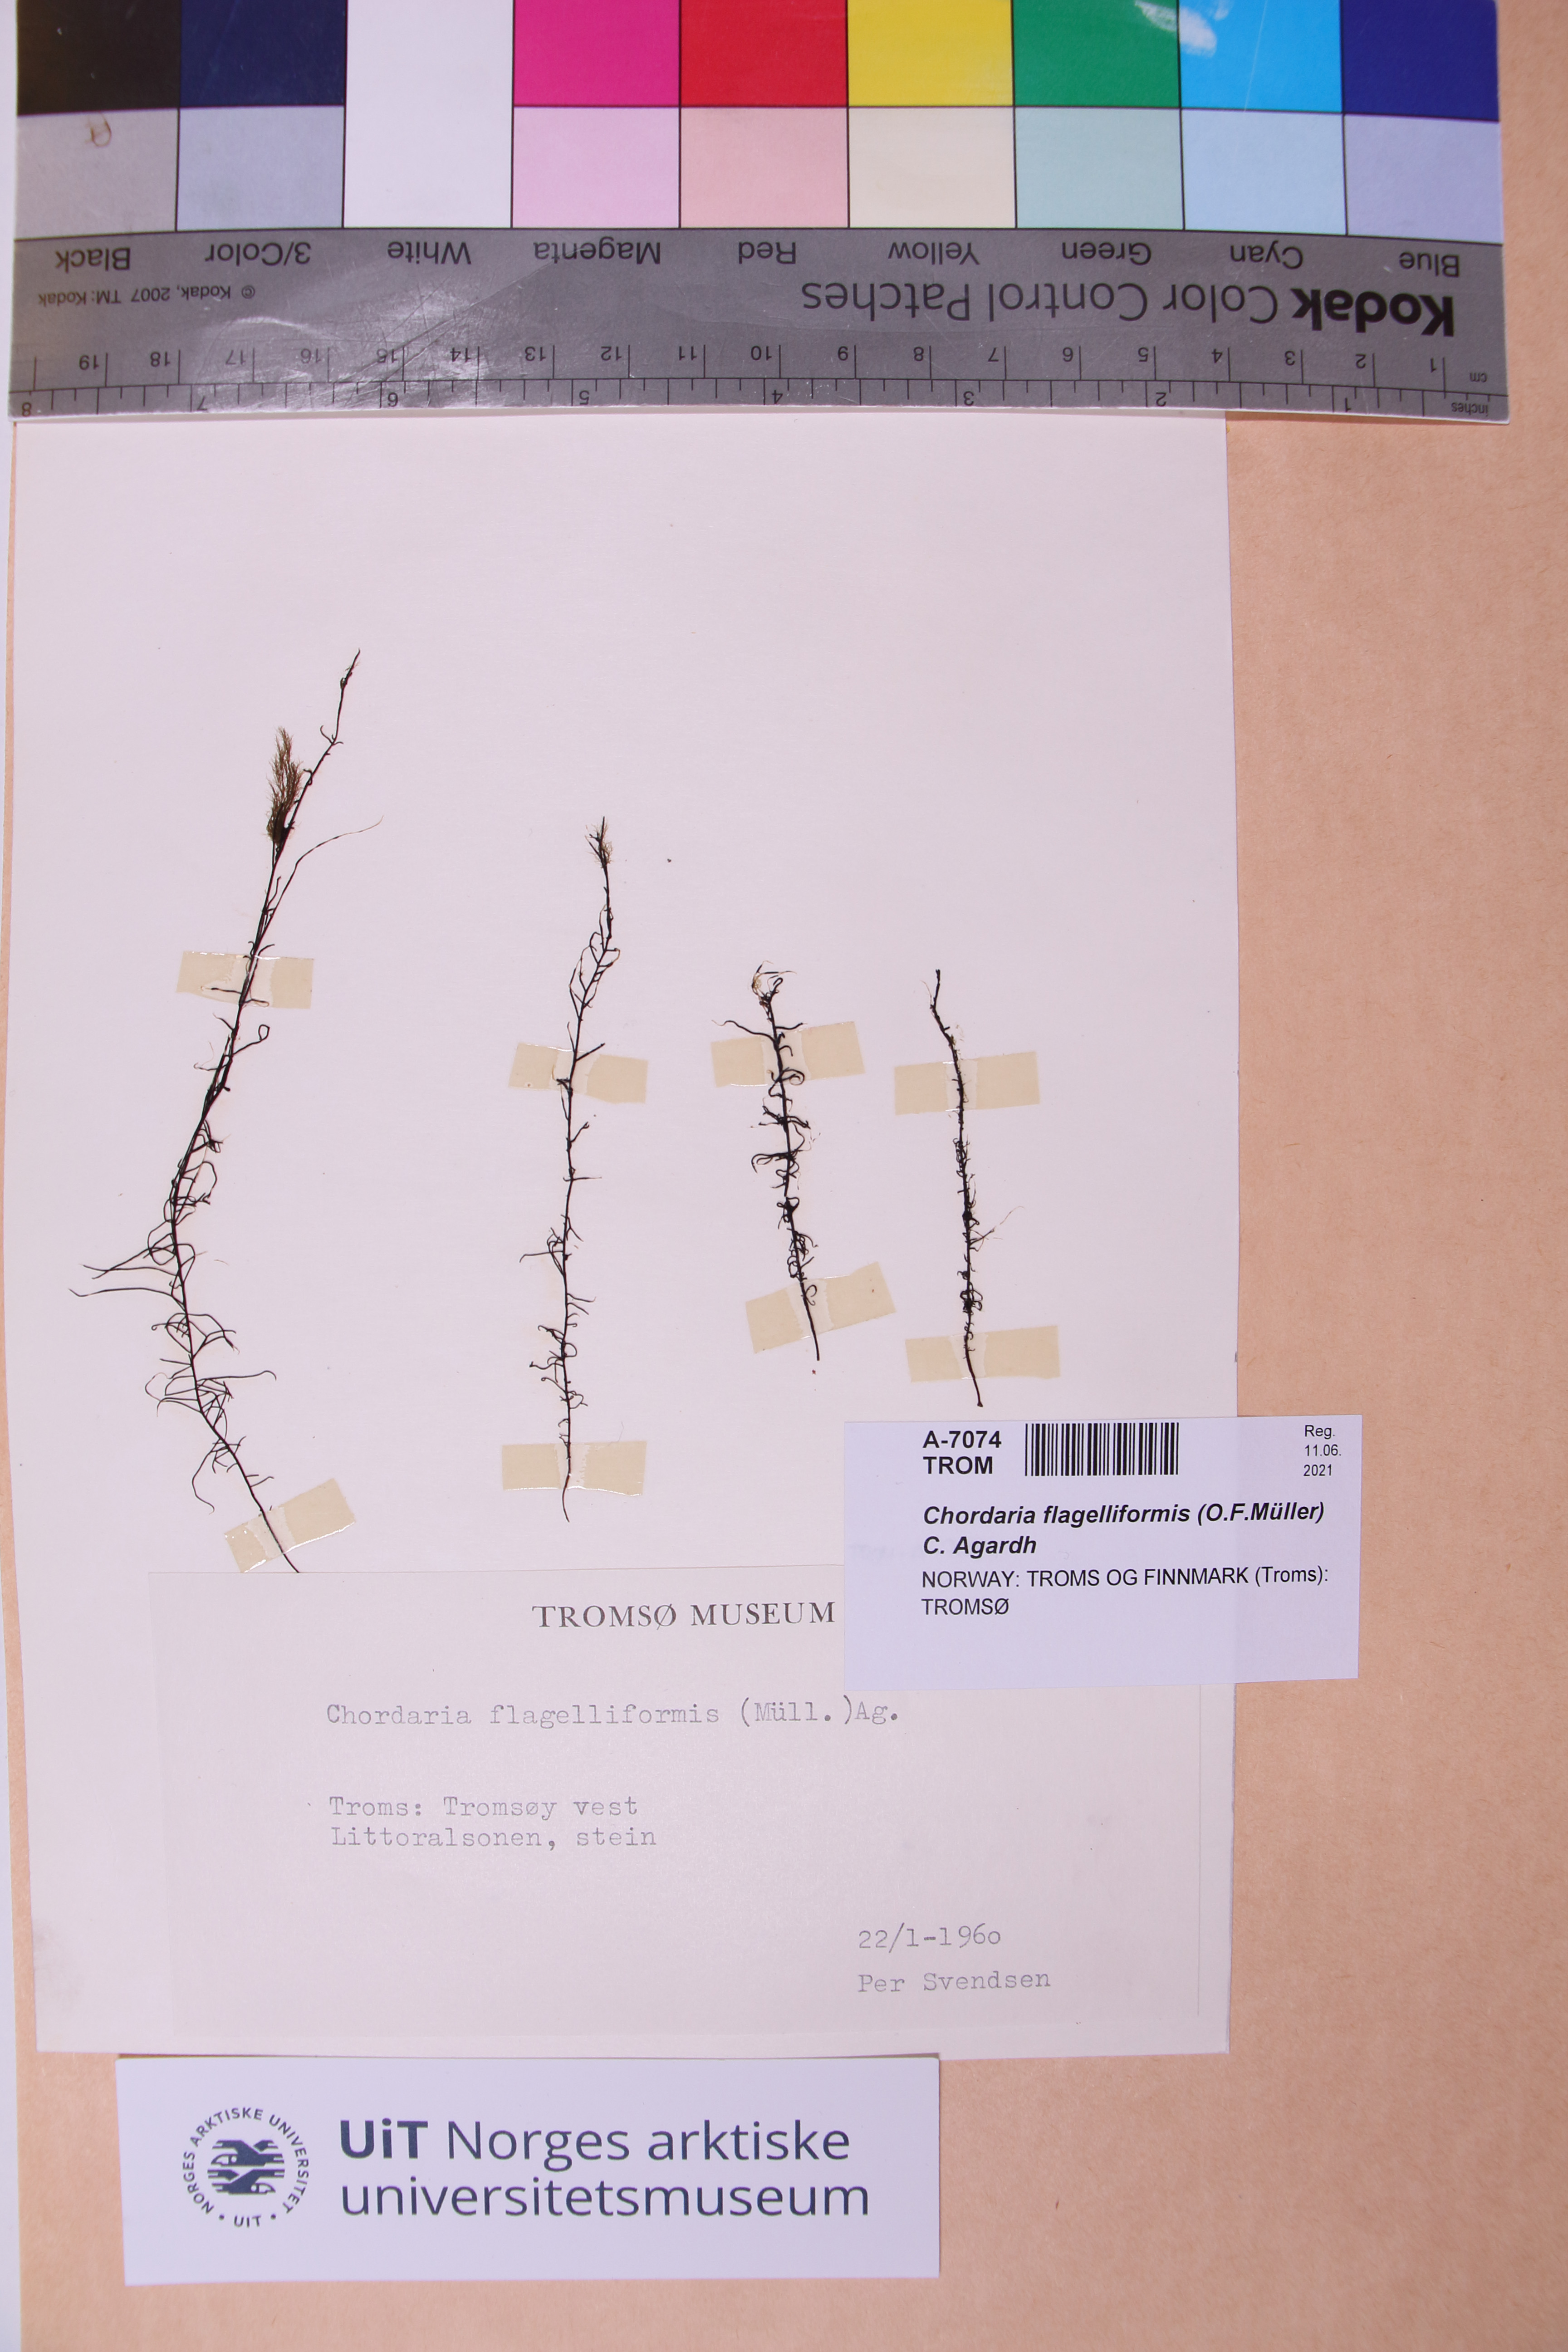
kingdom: Chromista
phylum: Ochrophyta
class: Phaeophyceae
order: Ectocarpales
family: Chordariaceae
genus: Chordaria
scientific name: Chordaria flagelliformis
